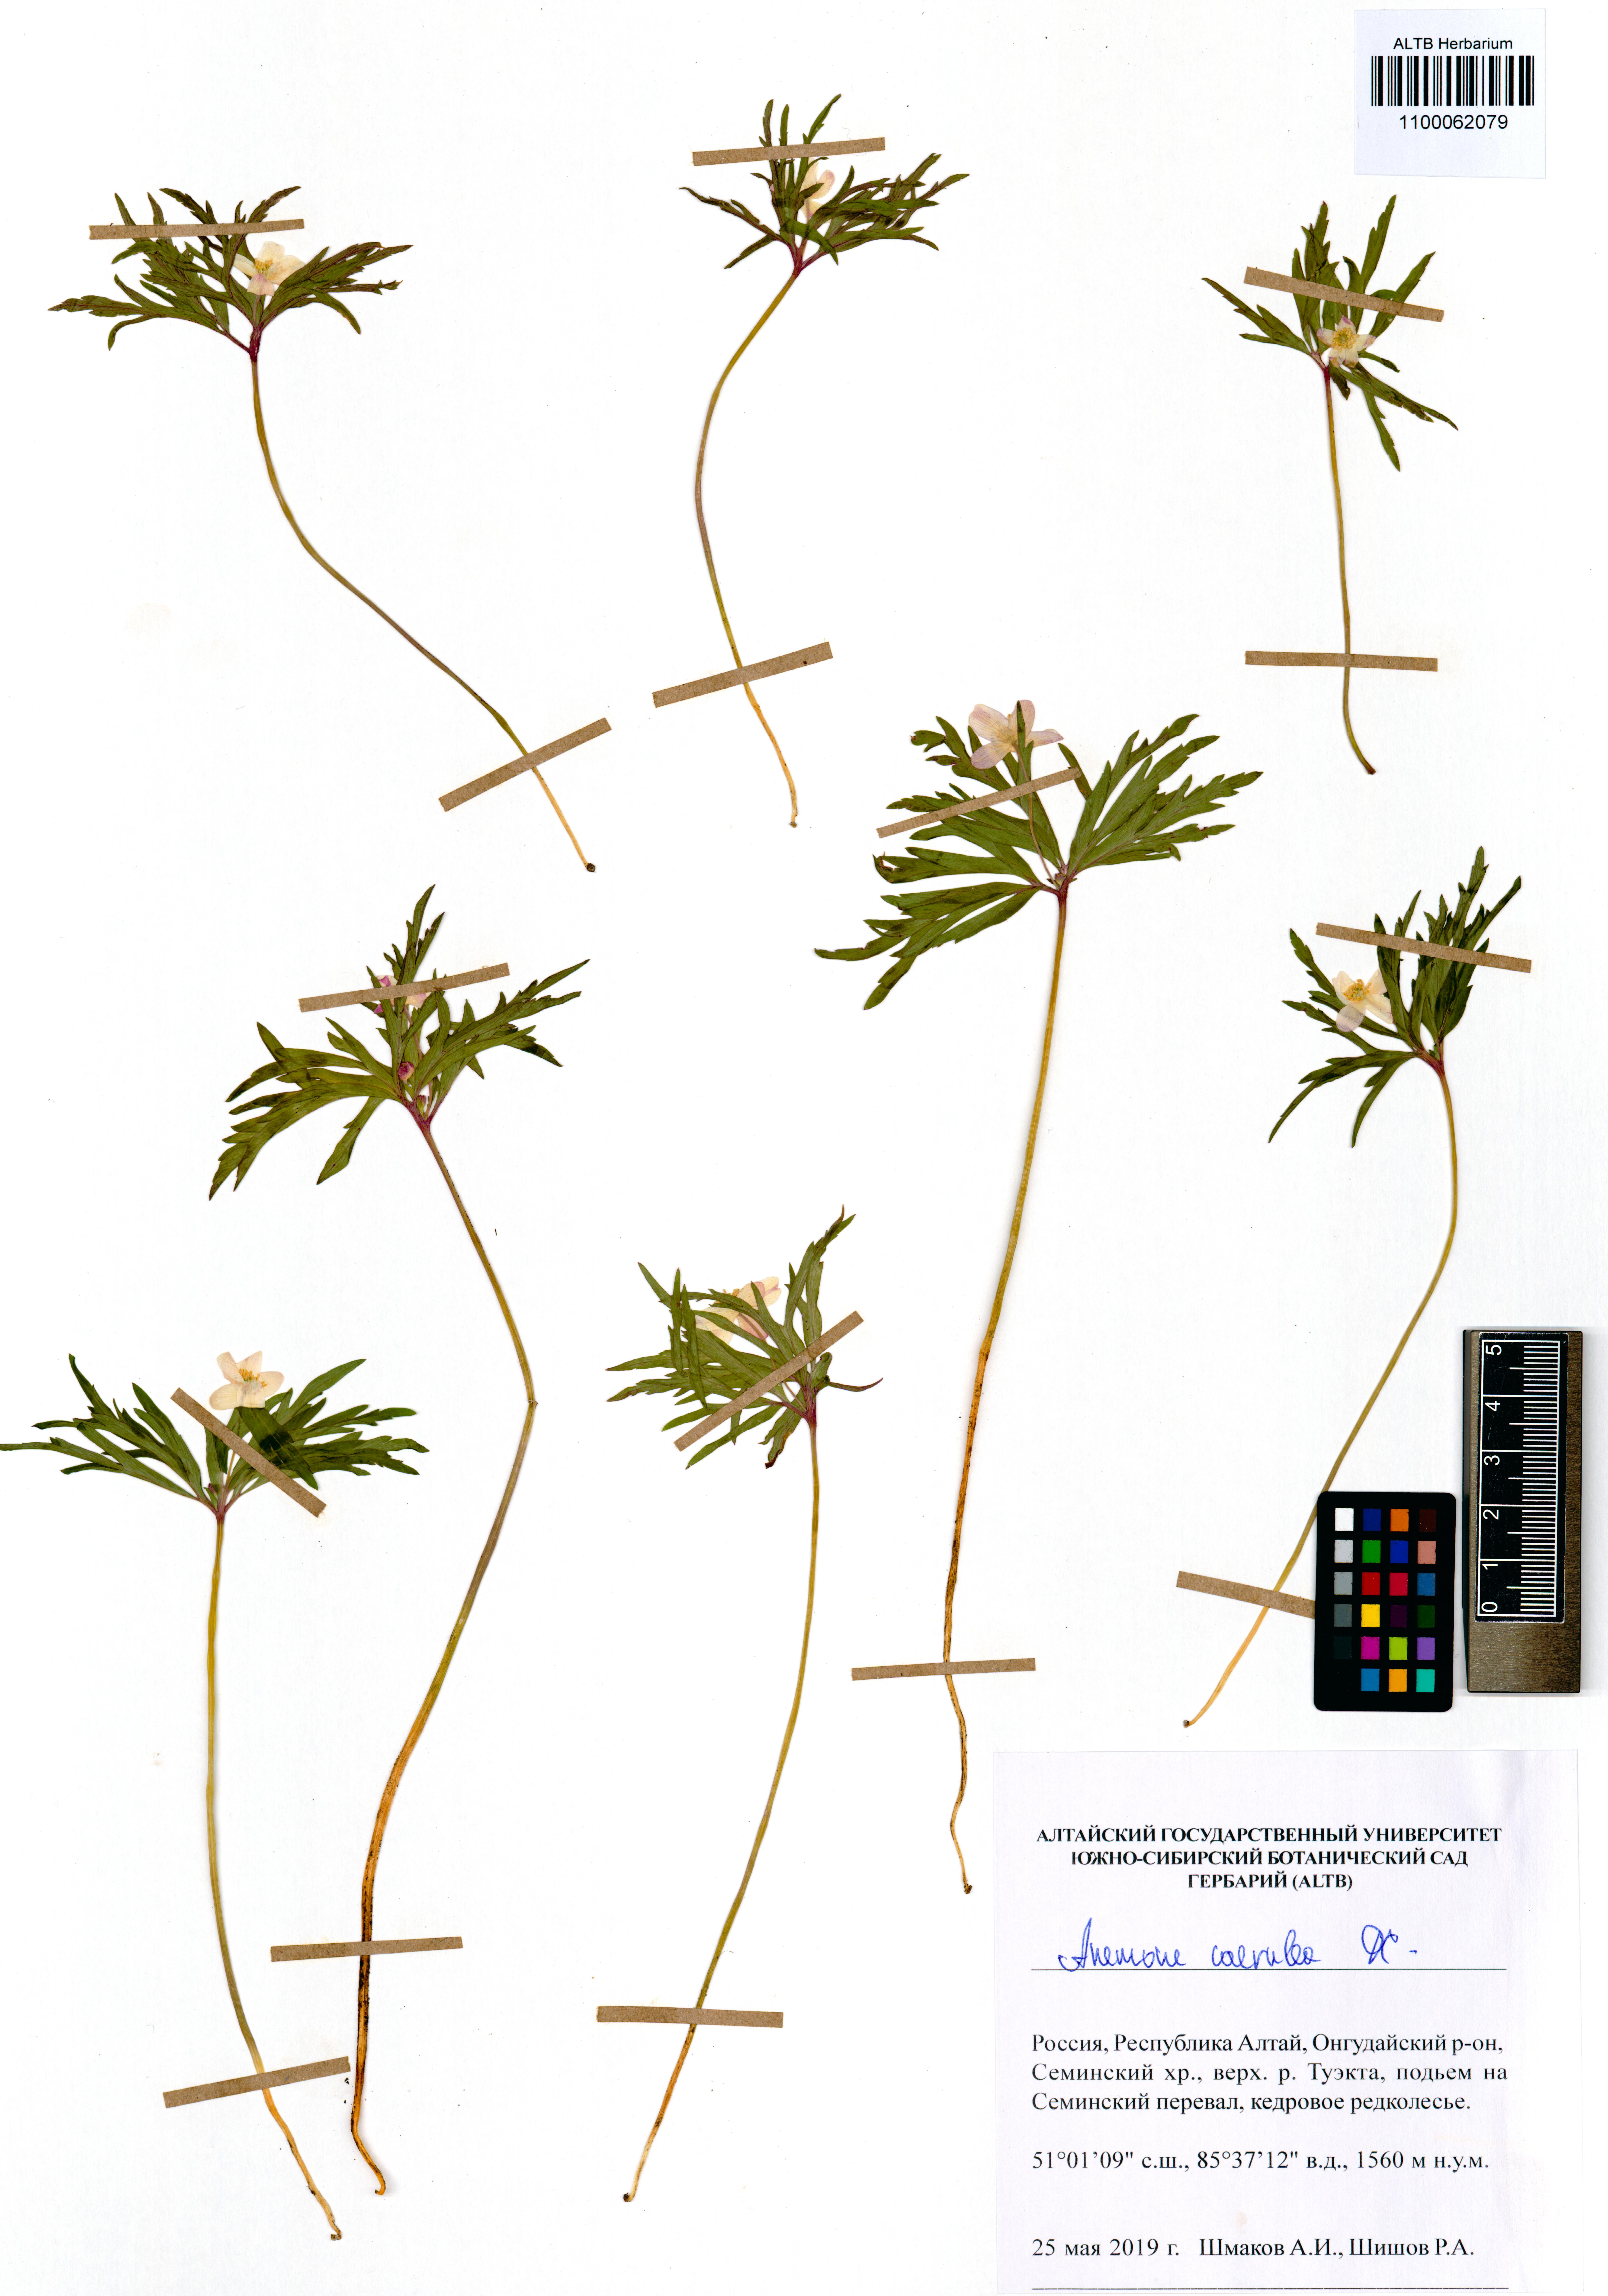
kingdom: Plantae
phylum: Tracheophyta
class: Magnoliopsida
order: Ranunculales
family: Ranunculaceae
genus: Anemone
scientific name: Anemone caerulea
